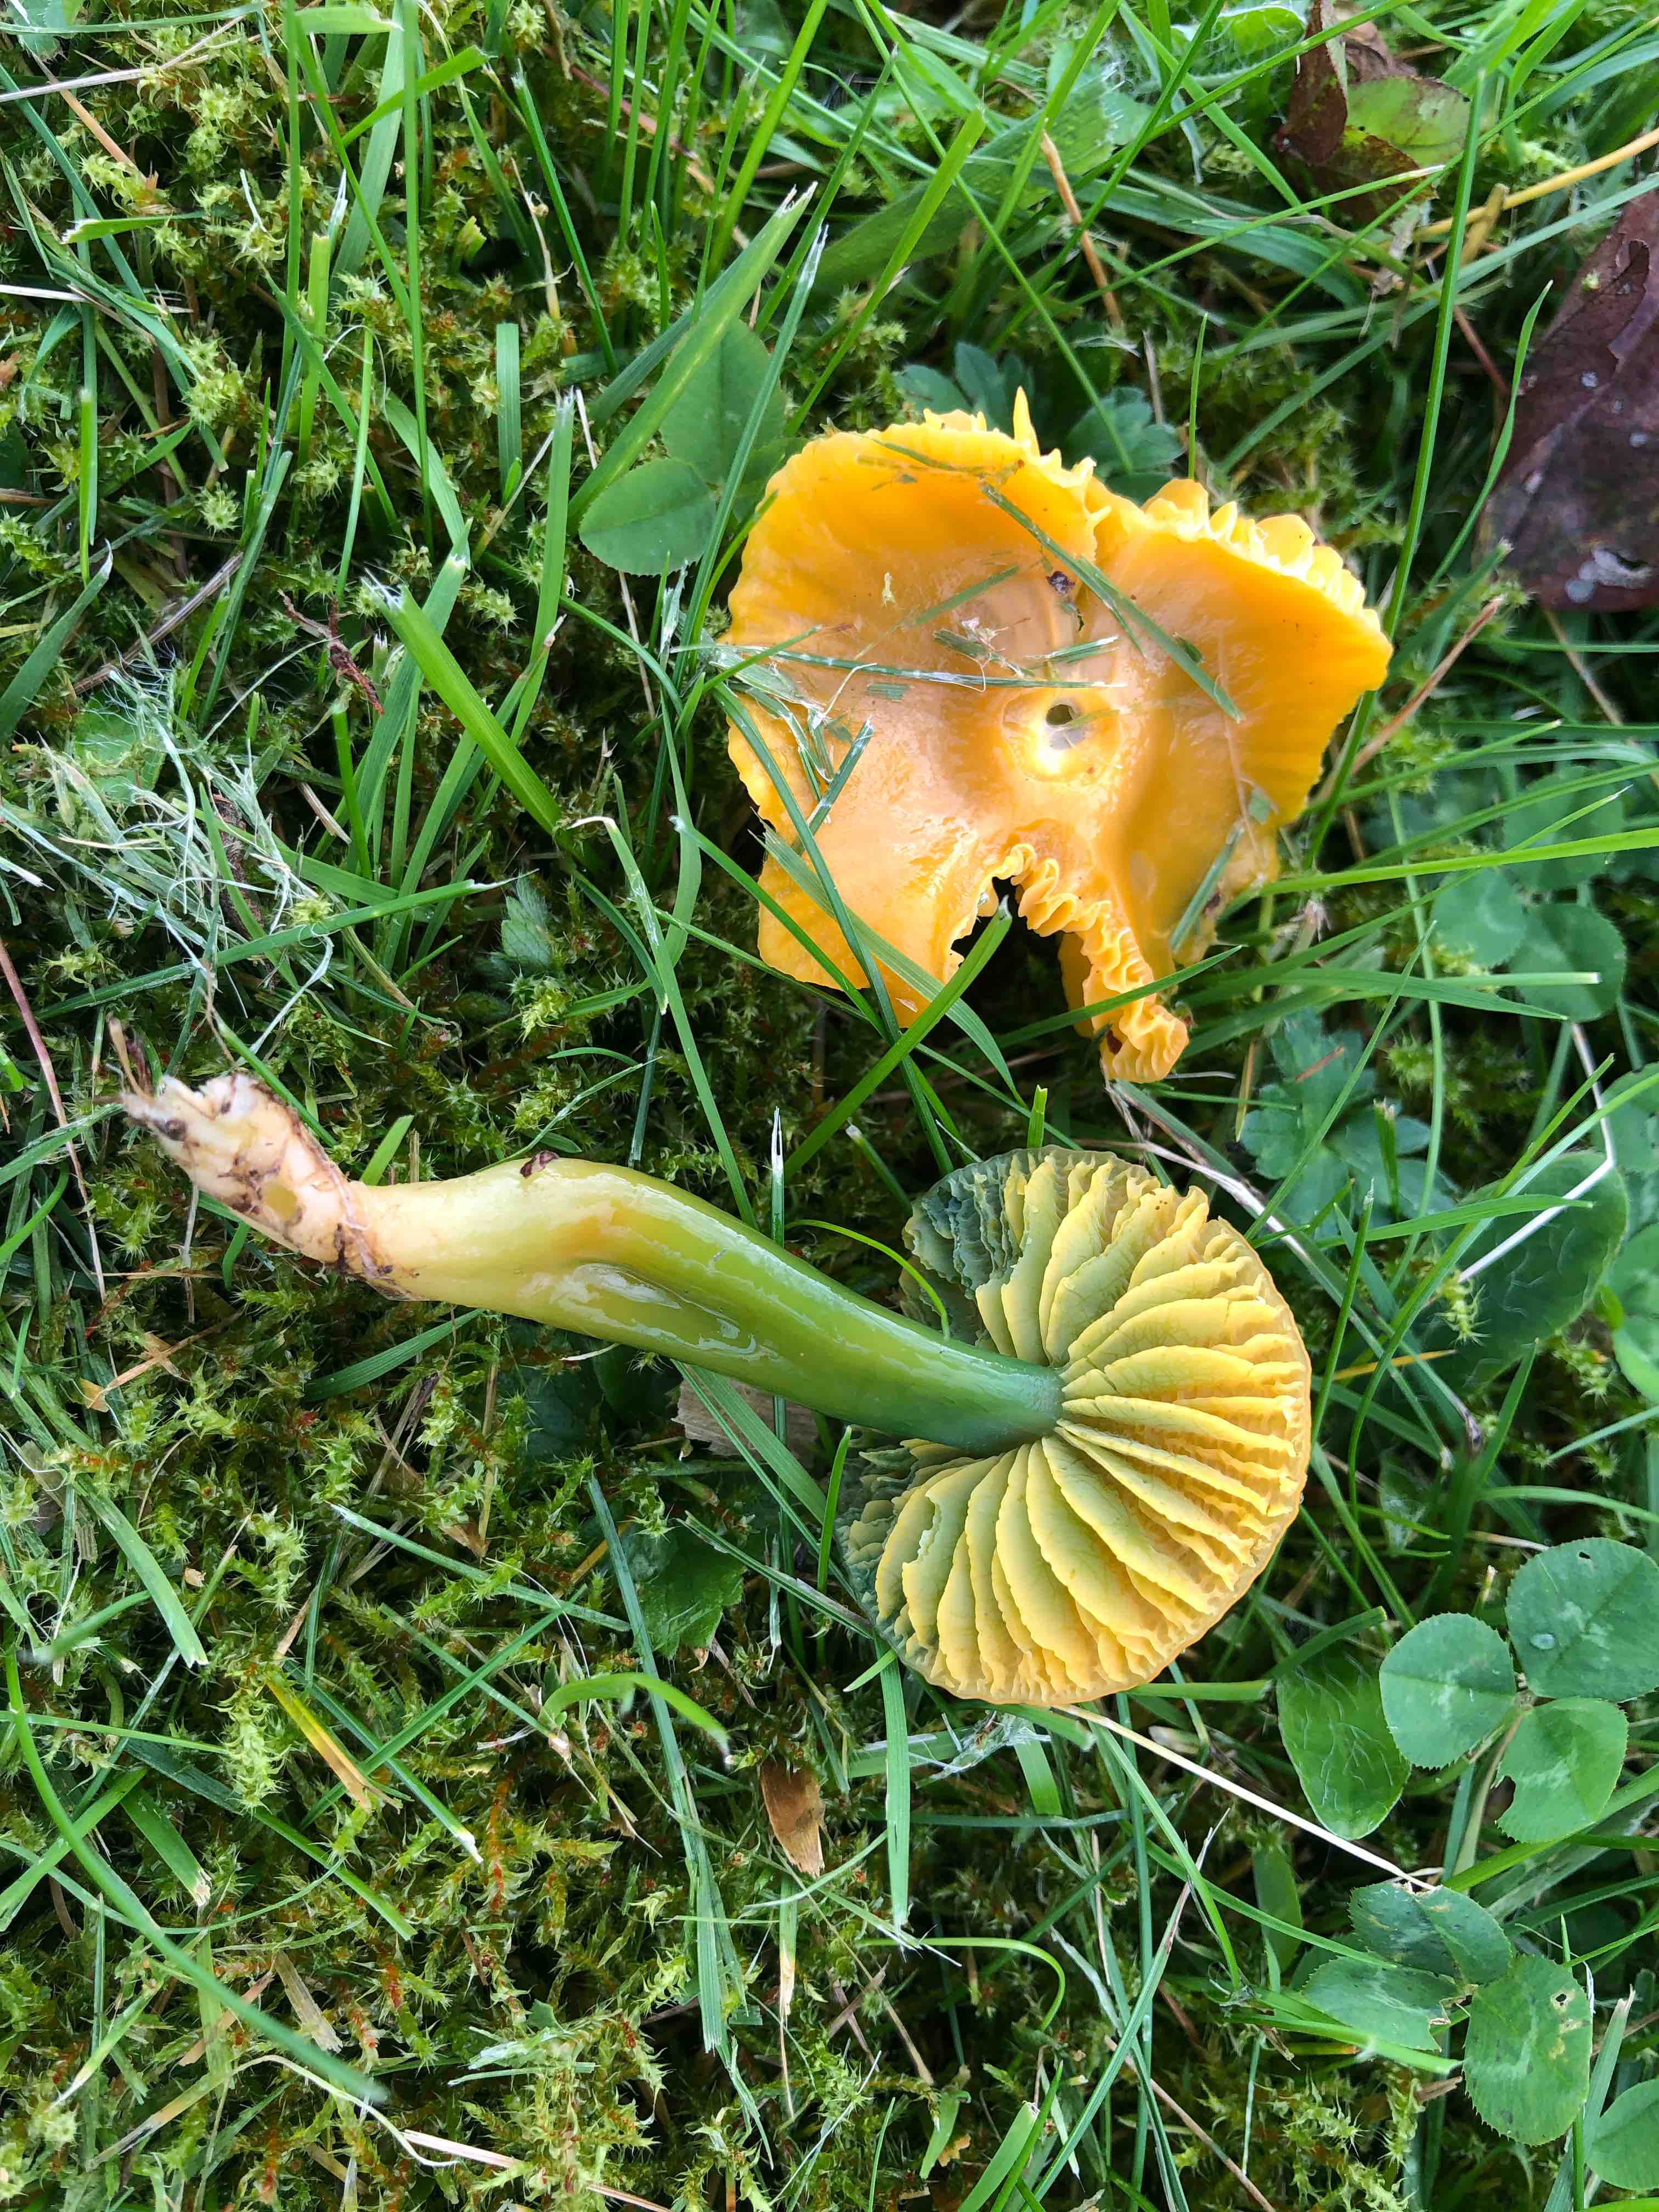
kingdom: Fungi
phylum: Basidiomycota
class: Agaricomycetes
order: Agaricales
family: Hygrophoraceae
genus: Gliophorus
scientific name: Gliophorus psittacinus
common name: papegøje-vokshat
